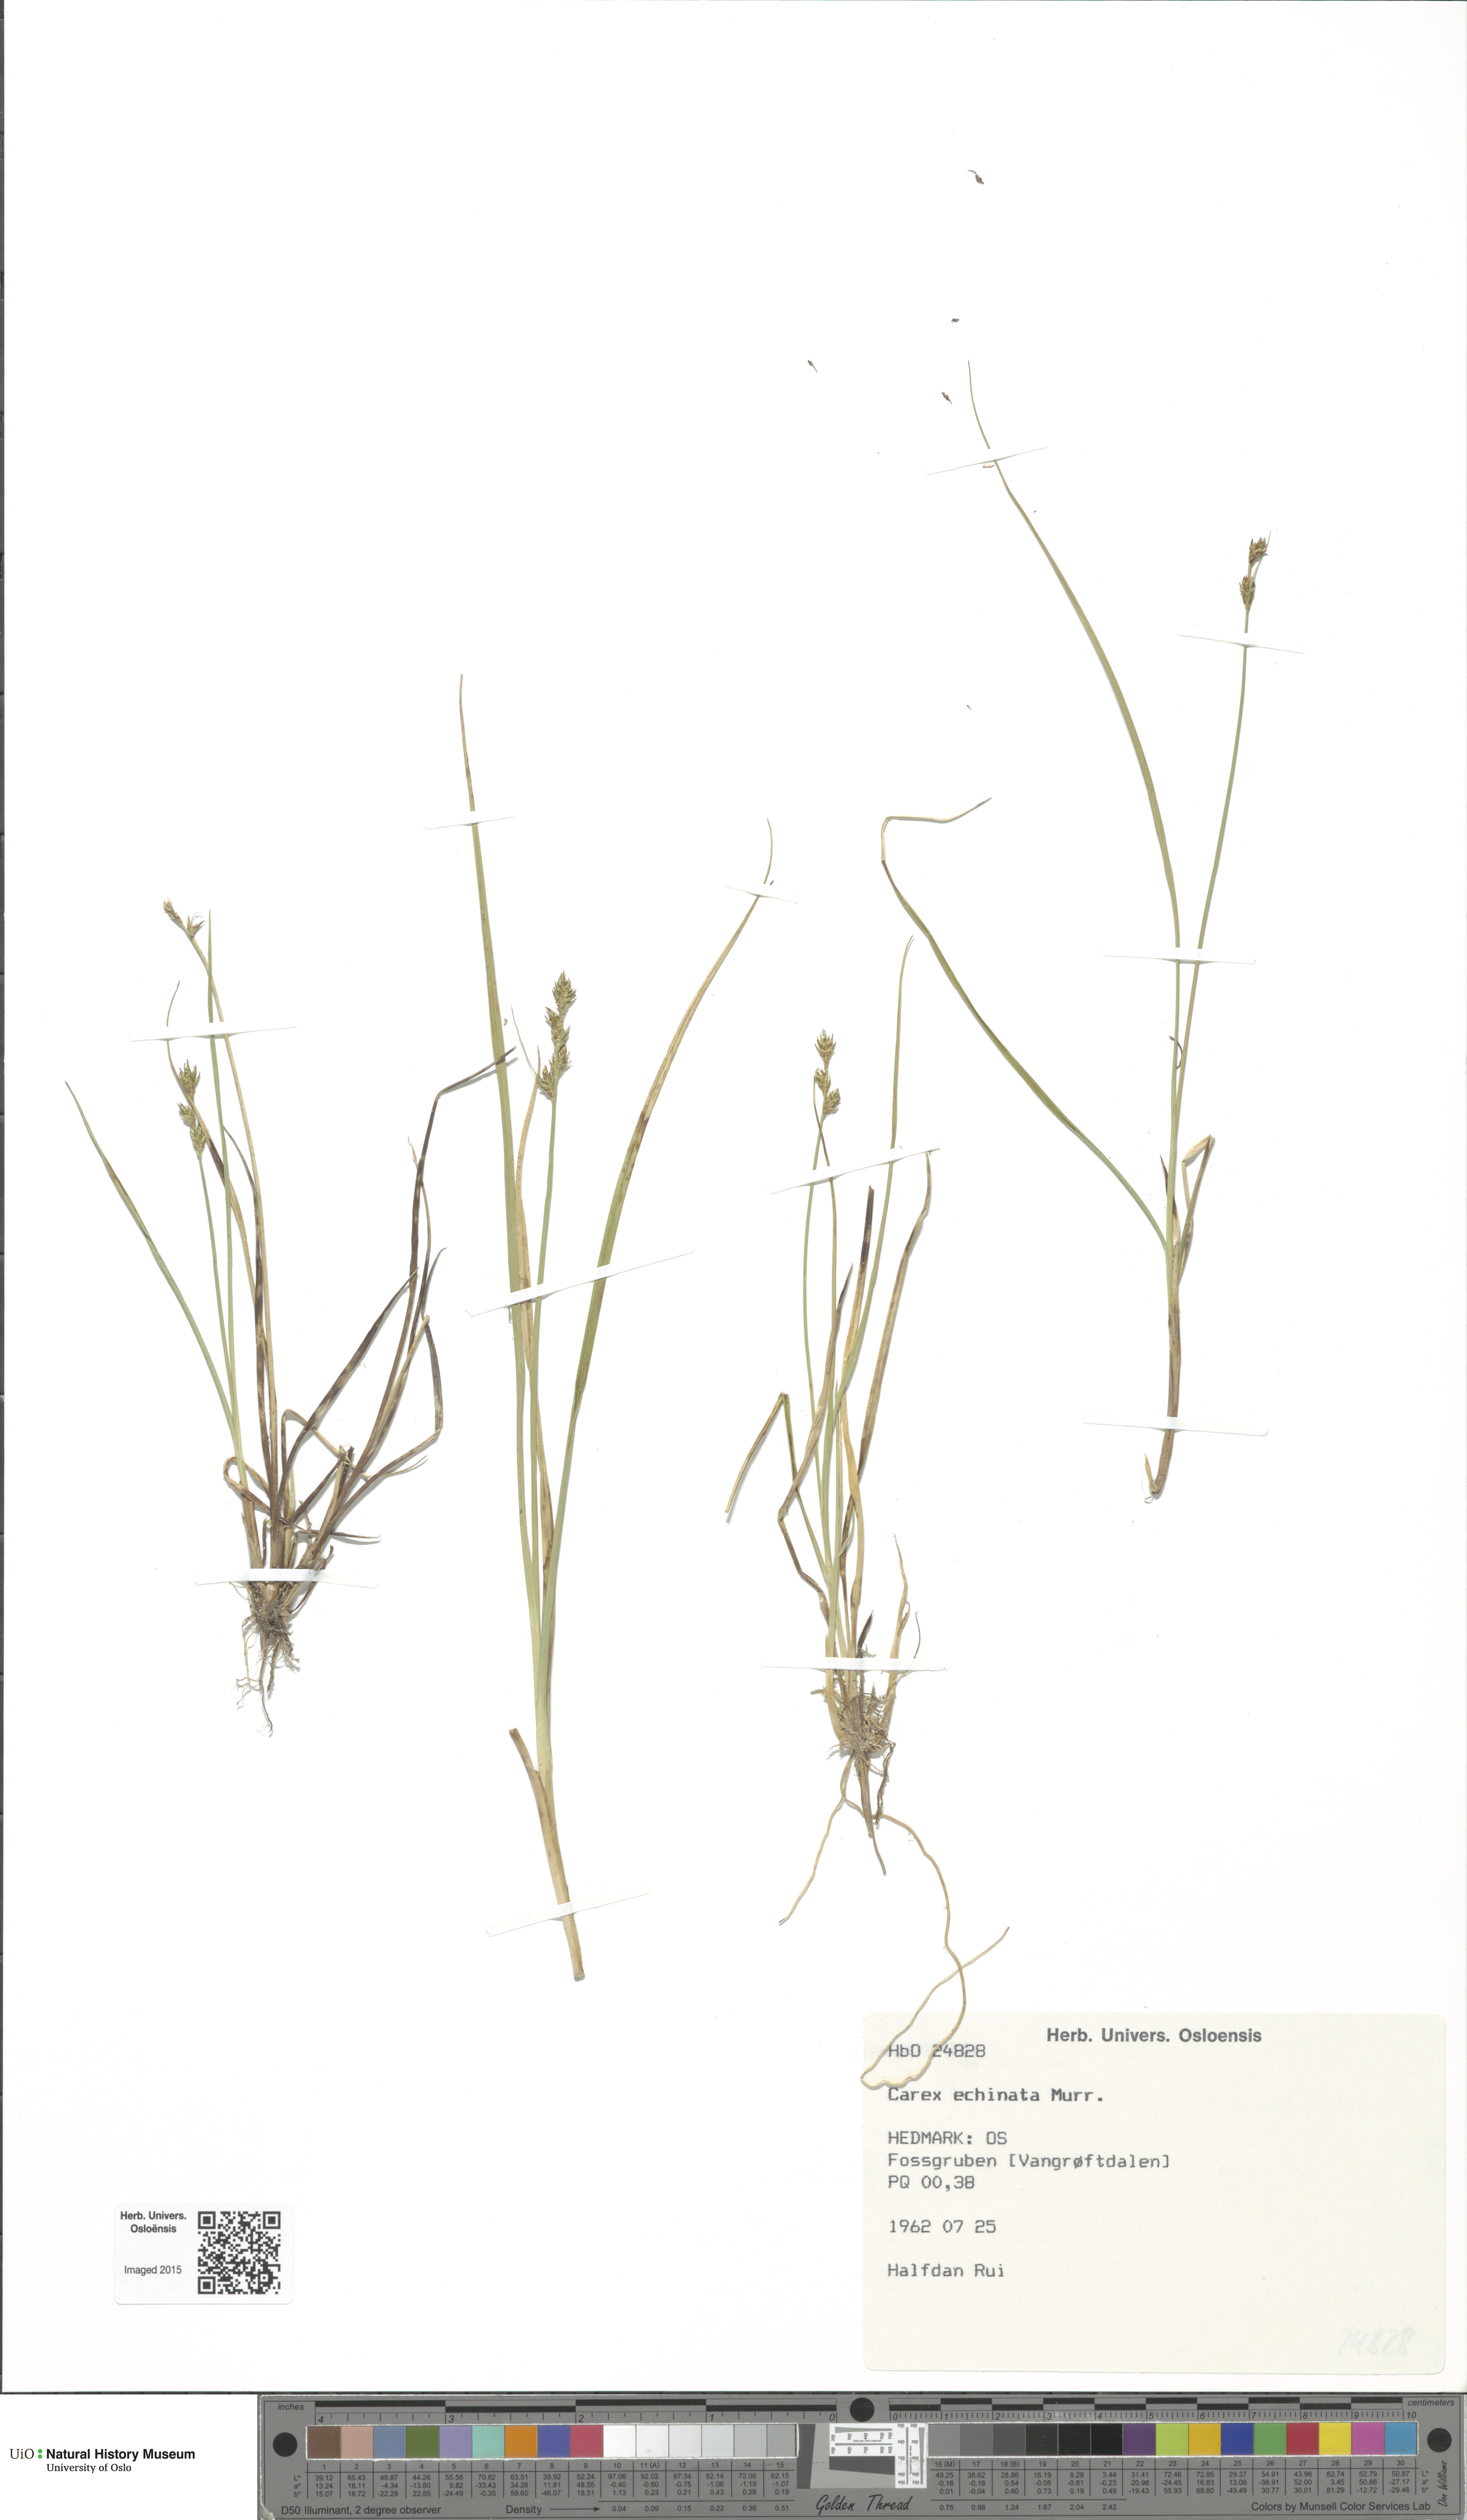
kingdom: Plantae
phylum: Tracheophyta
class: Liliopsida
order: Poales
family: Cyperaceae
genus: Carex
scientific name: Carex echinata
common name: Star sedge
